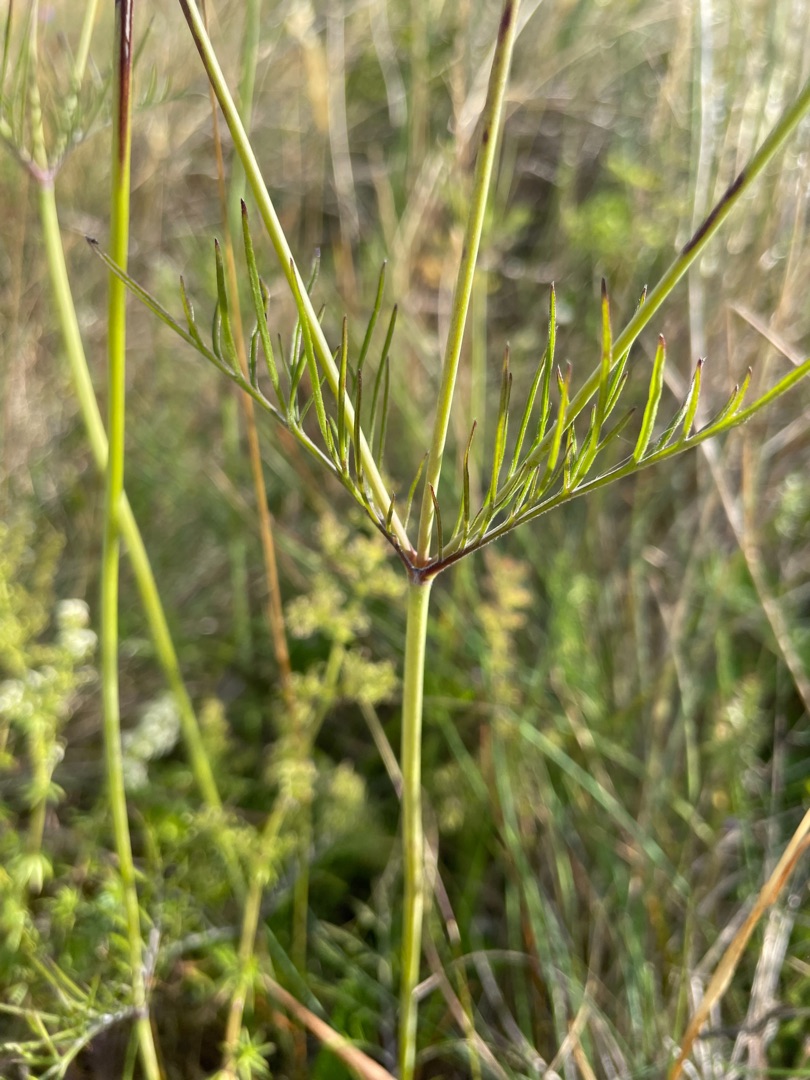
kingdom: Plantae
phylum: Tracheophyta
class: Magnoliopsida
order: Dipsacales
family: Caprifoliaceae
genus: Scabiosa
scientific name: Scabiosa columbaria
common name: Due-skabiose
